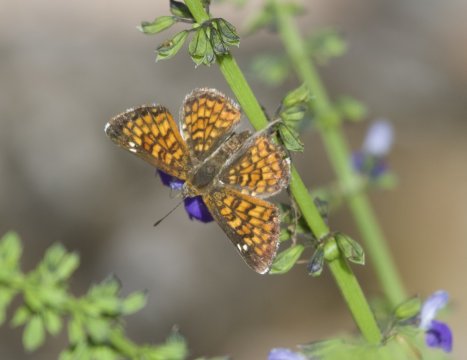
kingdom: Animalia
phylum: Arthropoda
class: Insecta
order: Lepidoptera
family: Riodinidae
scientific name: Riodinidae
